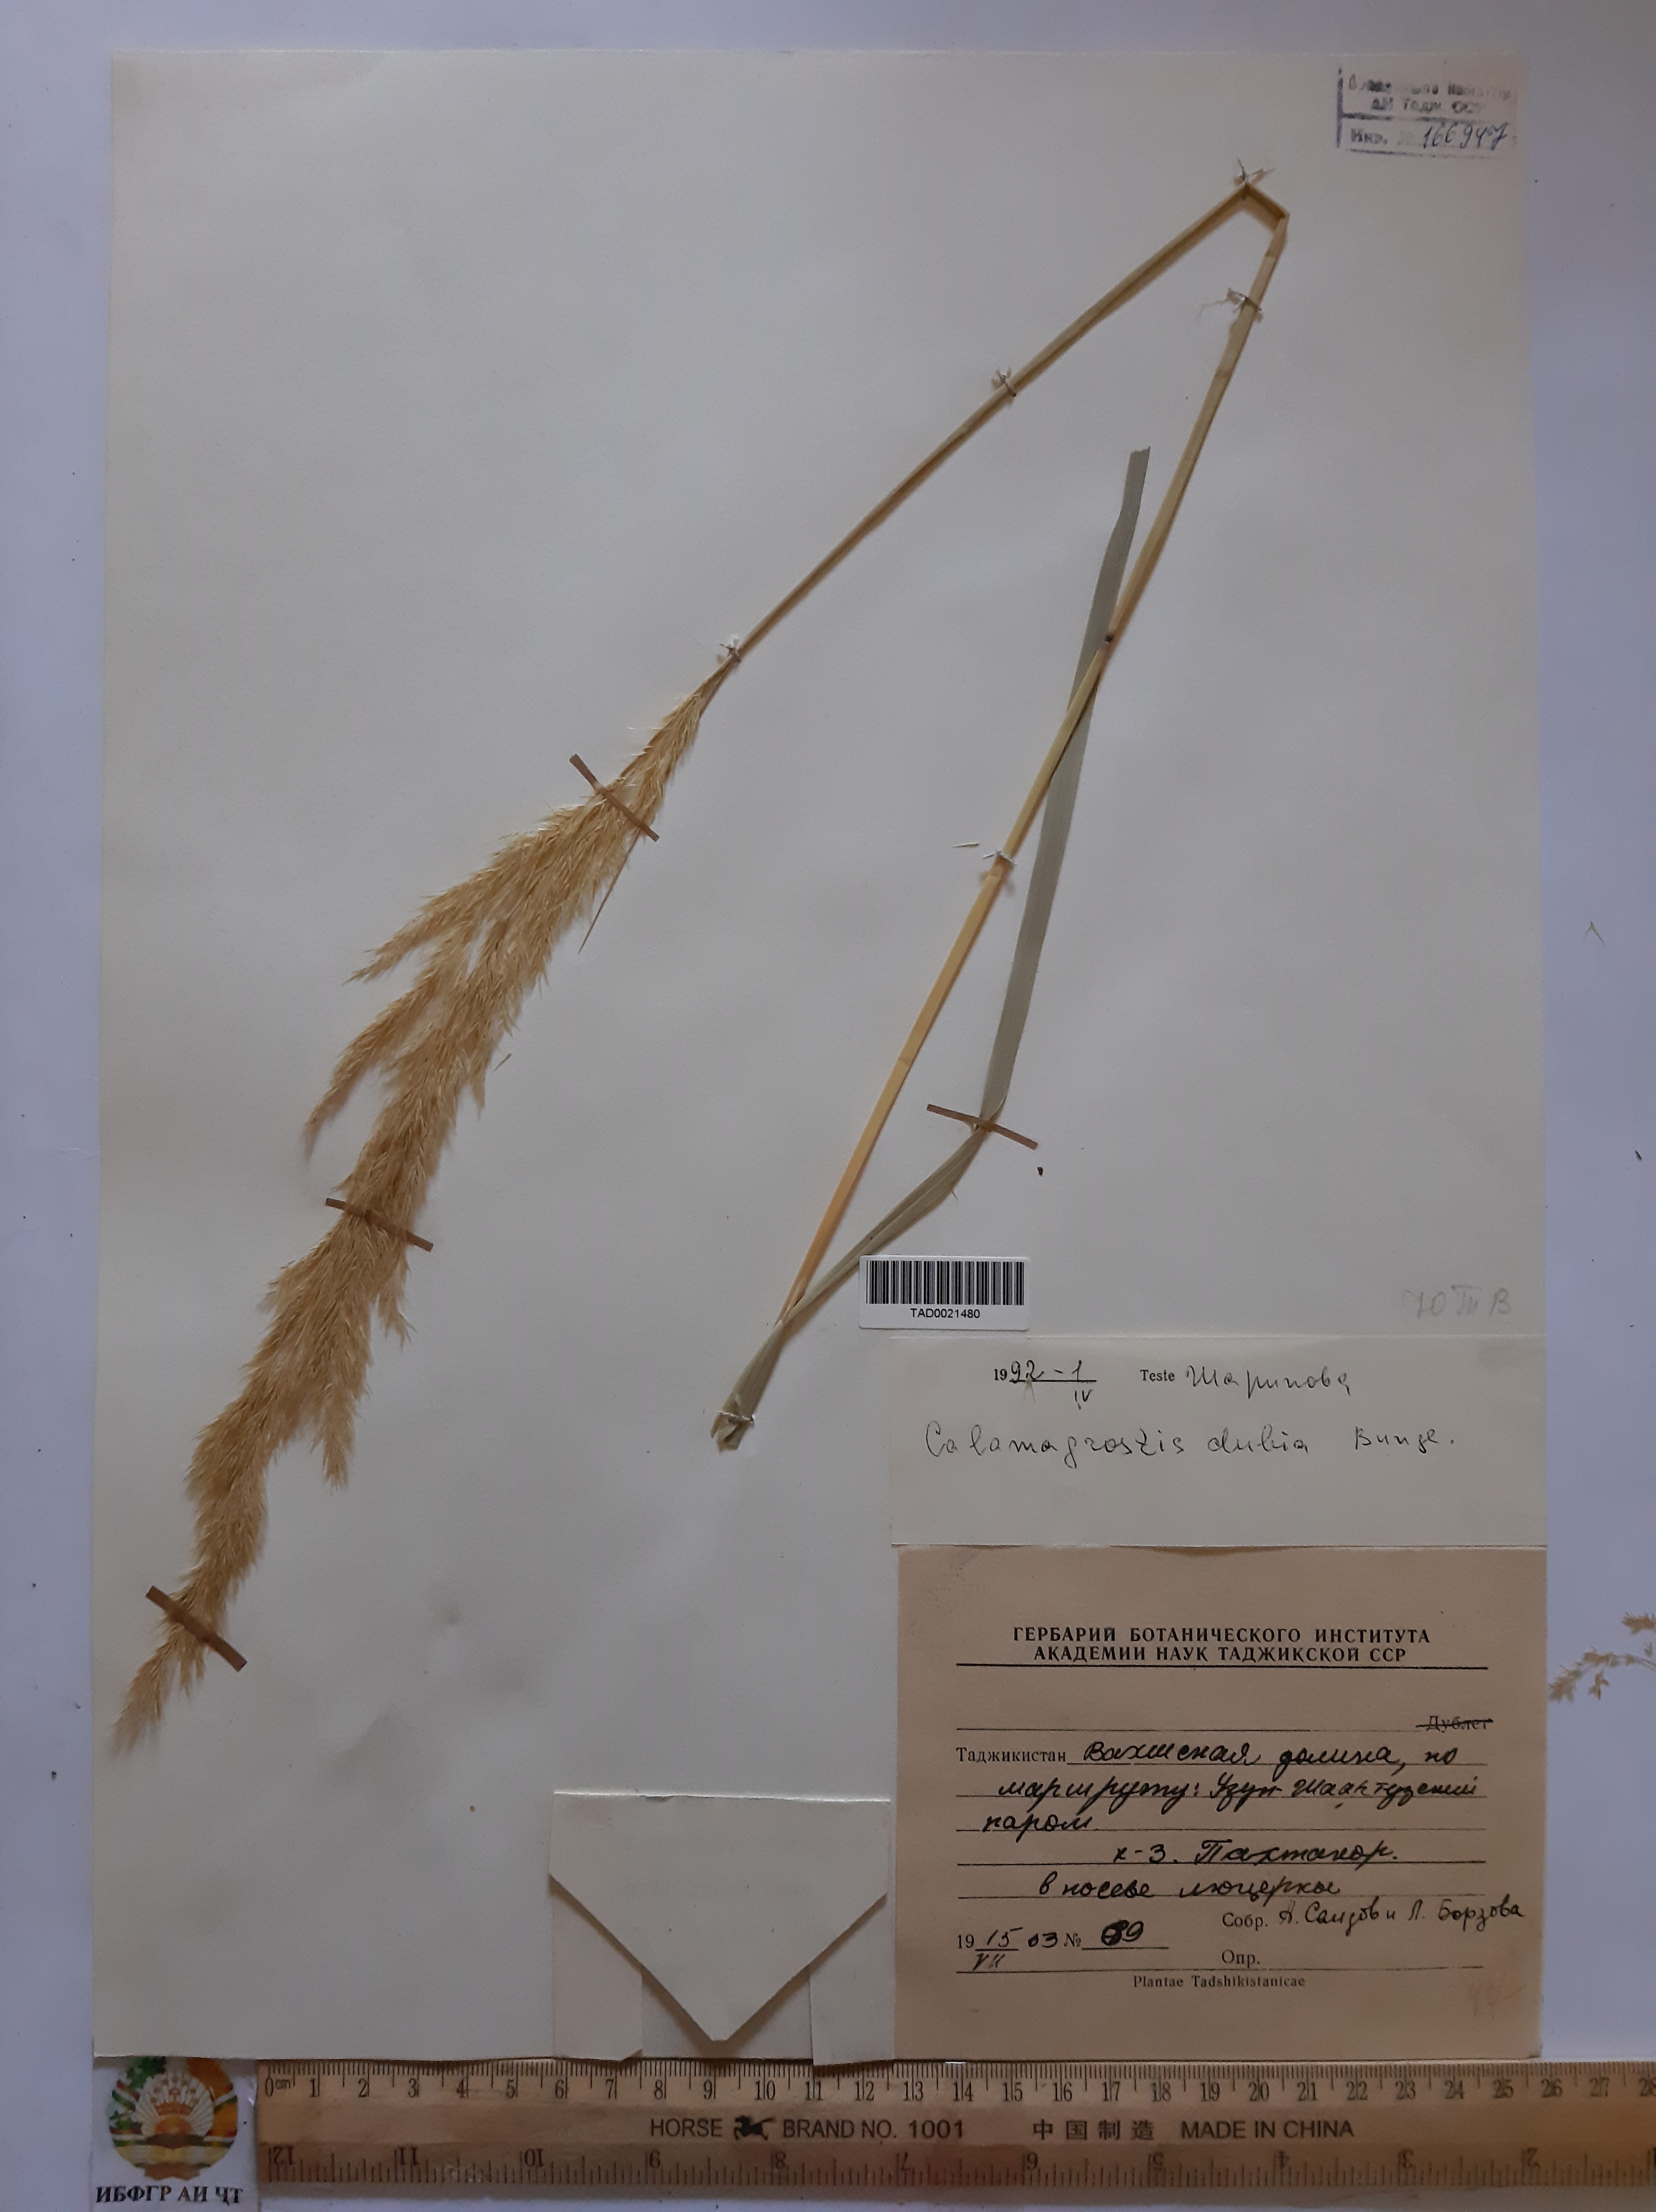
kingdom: Plantae
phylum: Tracheophyta
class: Liliopsida
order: Poales
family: Poaceae
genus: Calamagrostis
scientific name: Calamagrostis pseudophragmites
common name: Coastal small-reed
